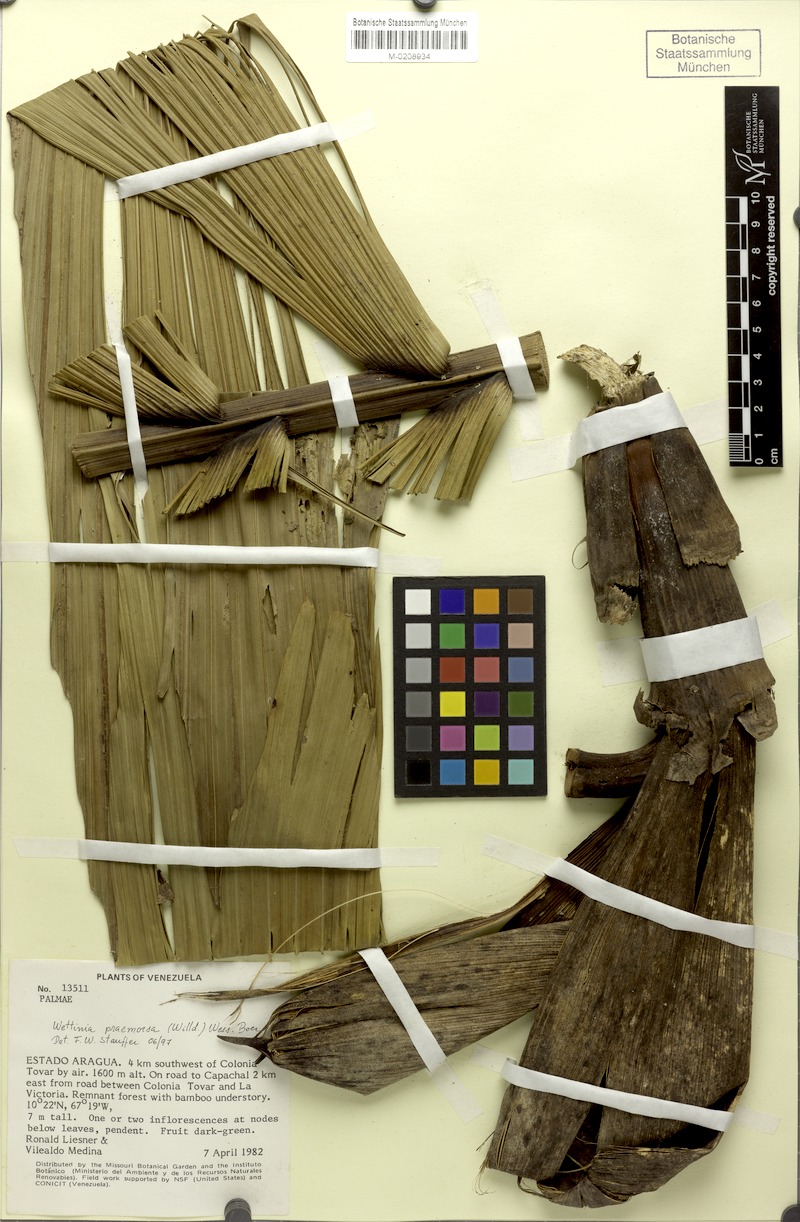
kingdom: Plantae
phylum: Tracheophyta
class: Liliopsida
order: Arecales
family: Arecaceae
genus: Wettinia
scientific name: Wettinia praemorsa
